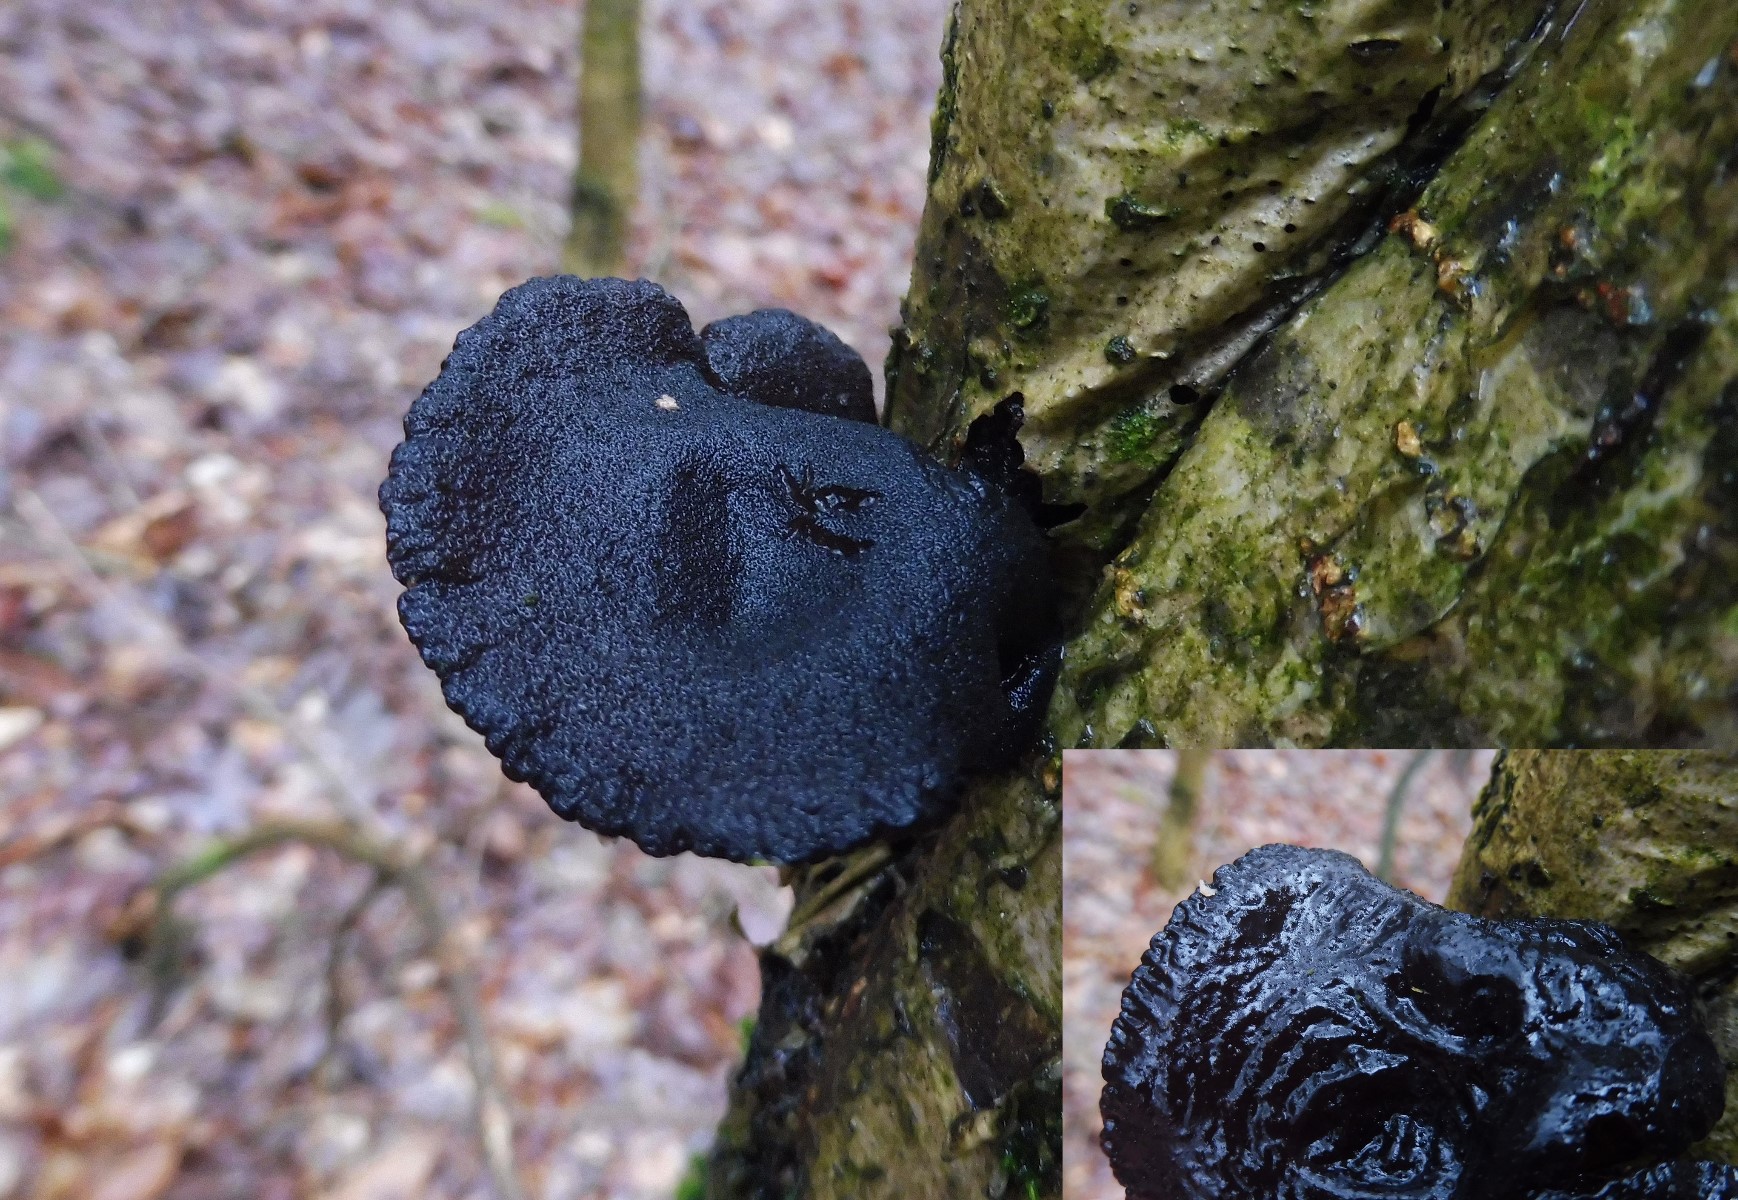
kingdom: Fungi
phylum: Basidiomycota
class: Agaricomycetes
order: Auriculariales
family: Auriculariaceae
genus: Exidia
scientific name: Exidia glandulosa
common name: ege-bævretop
